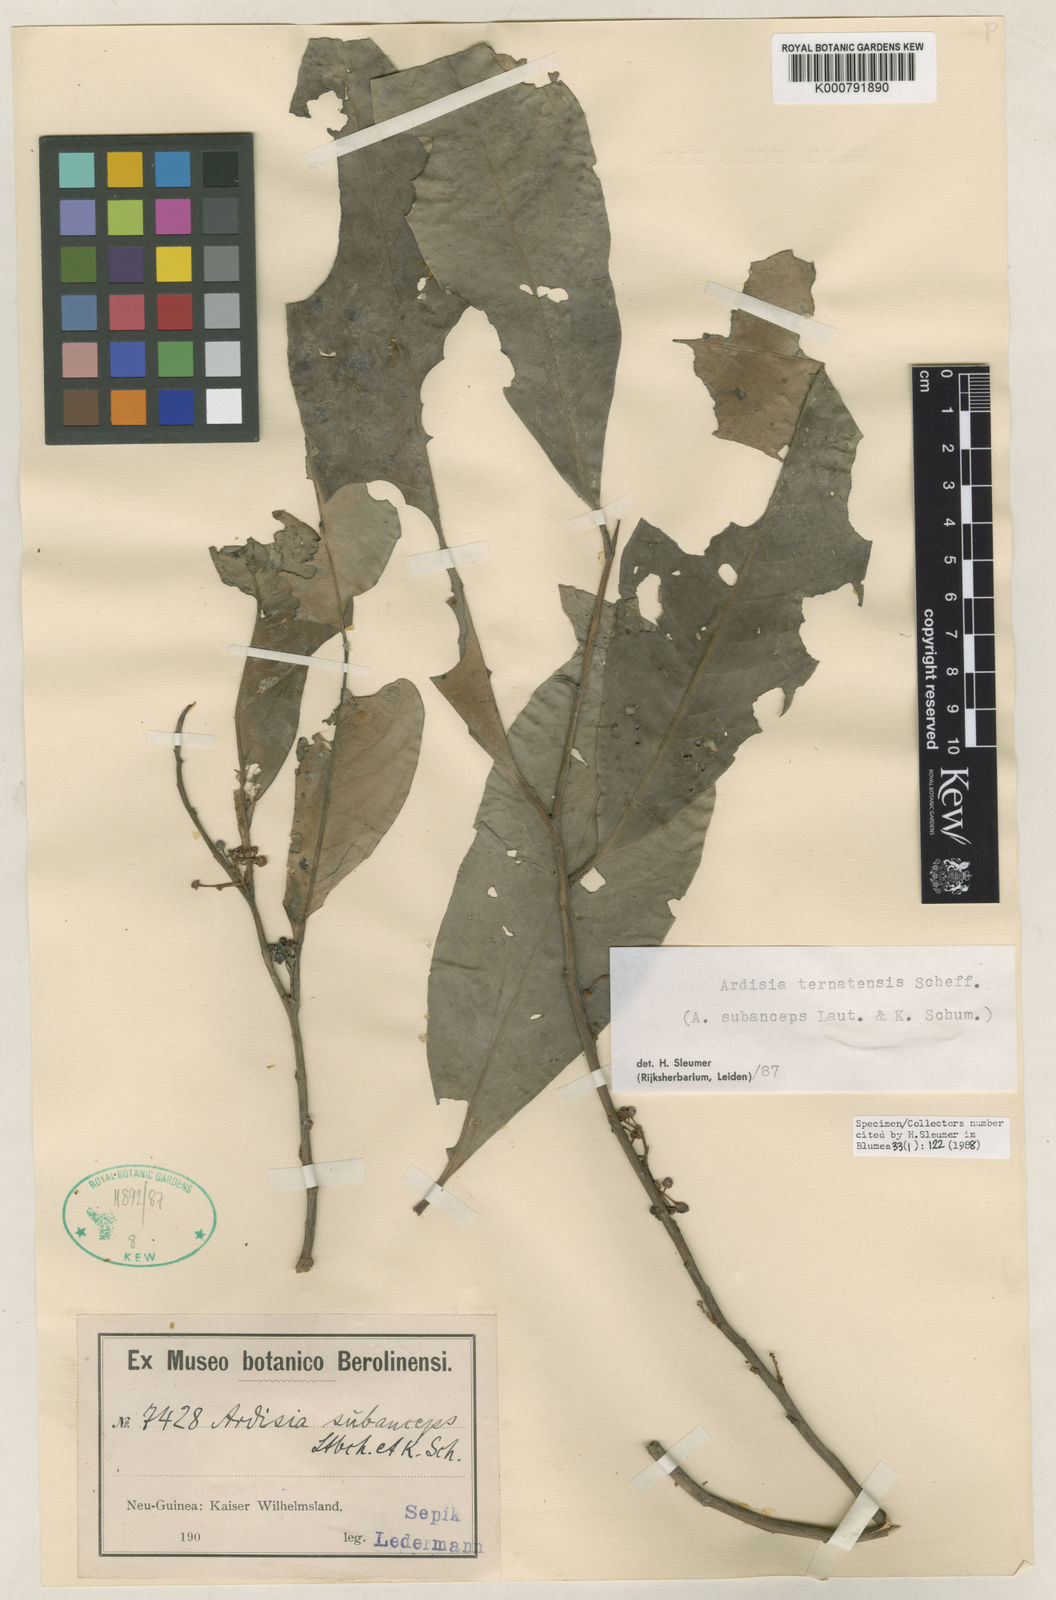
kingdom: Plantae
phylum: Tracheophyta
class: Magnoliopsida
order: Ericales
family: Primulaceae
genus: Ardisia
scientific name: Ardisia ternatensis
